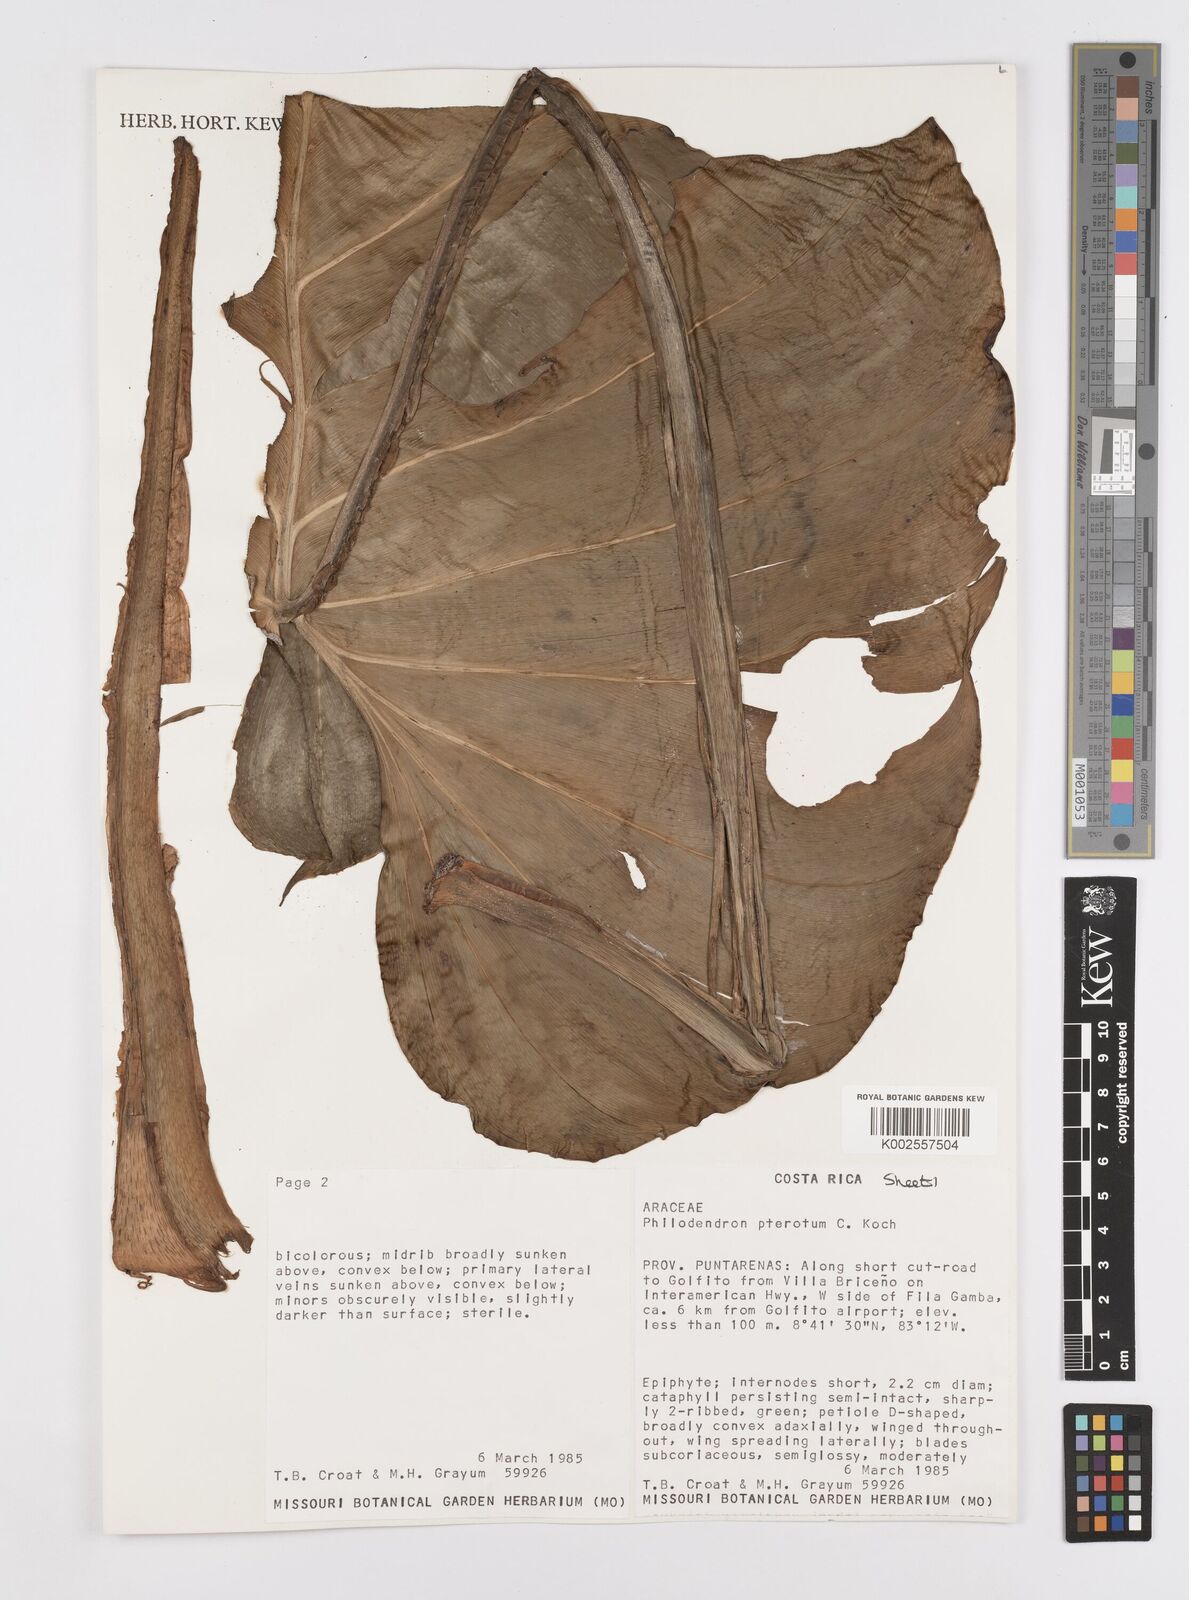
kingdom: Plantae
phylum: Tracheophyta
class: Liliopsida
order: Alismatales
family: Araceae
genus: Philodendron
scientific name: Philodendron pterotum
